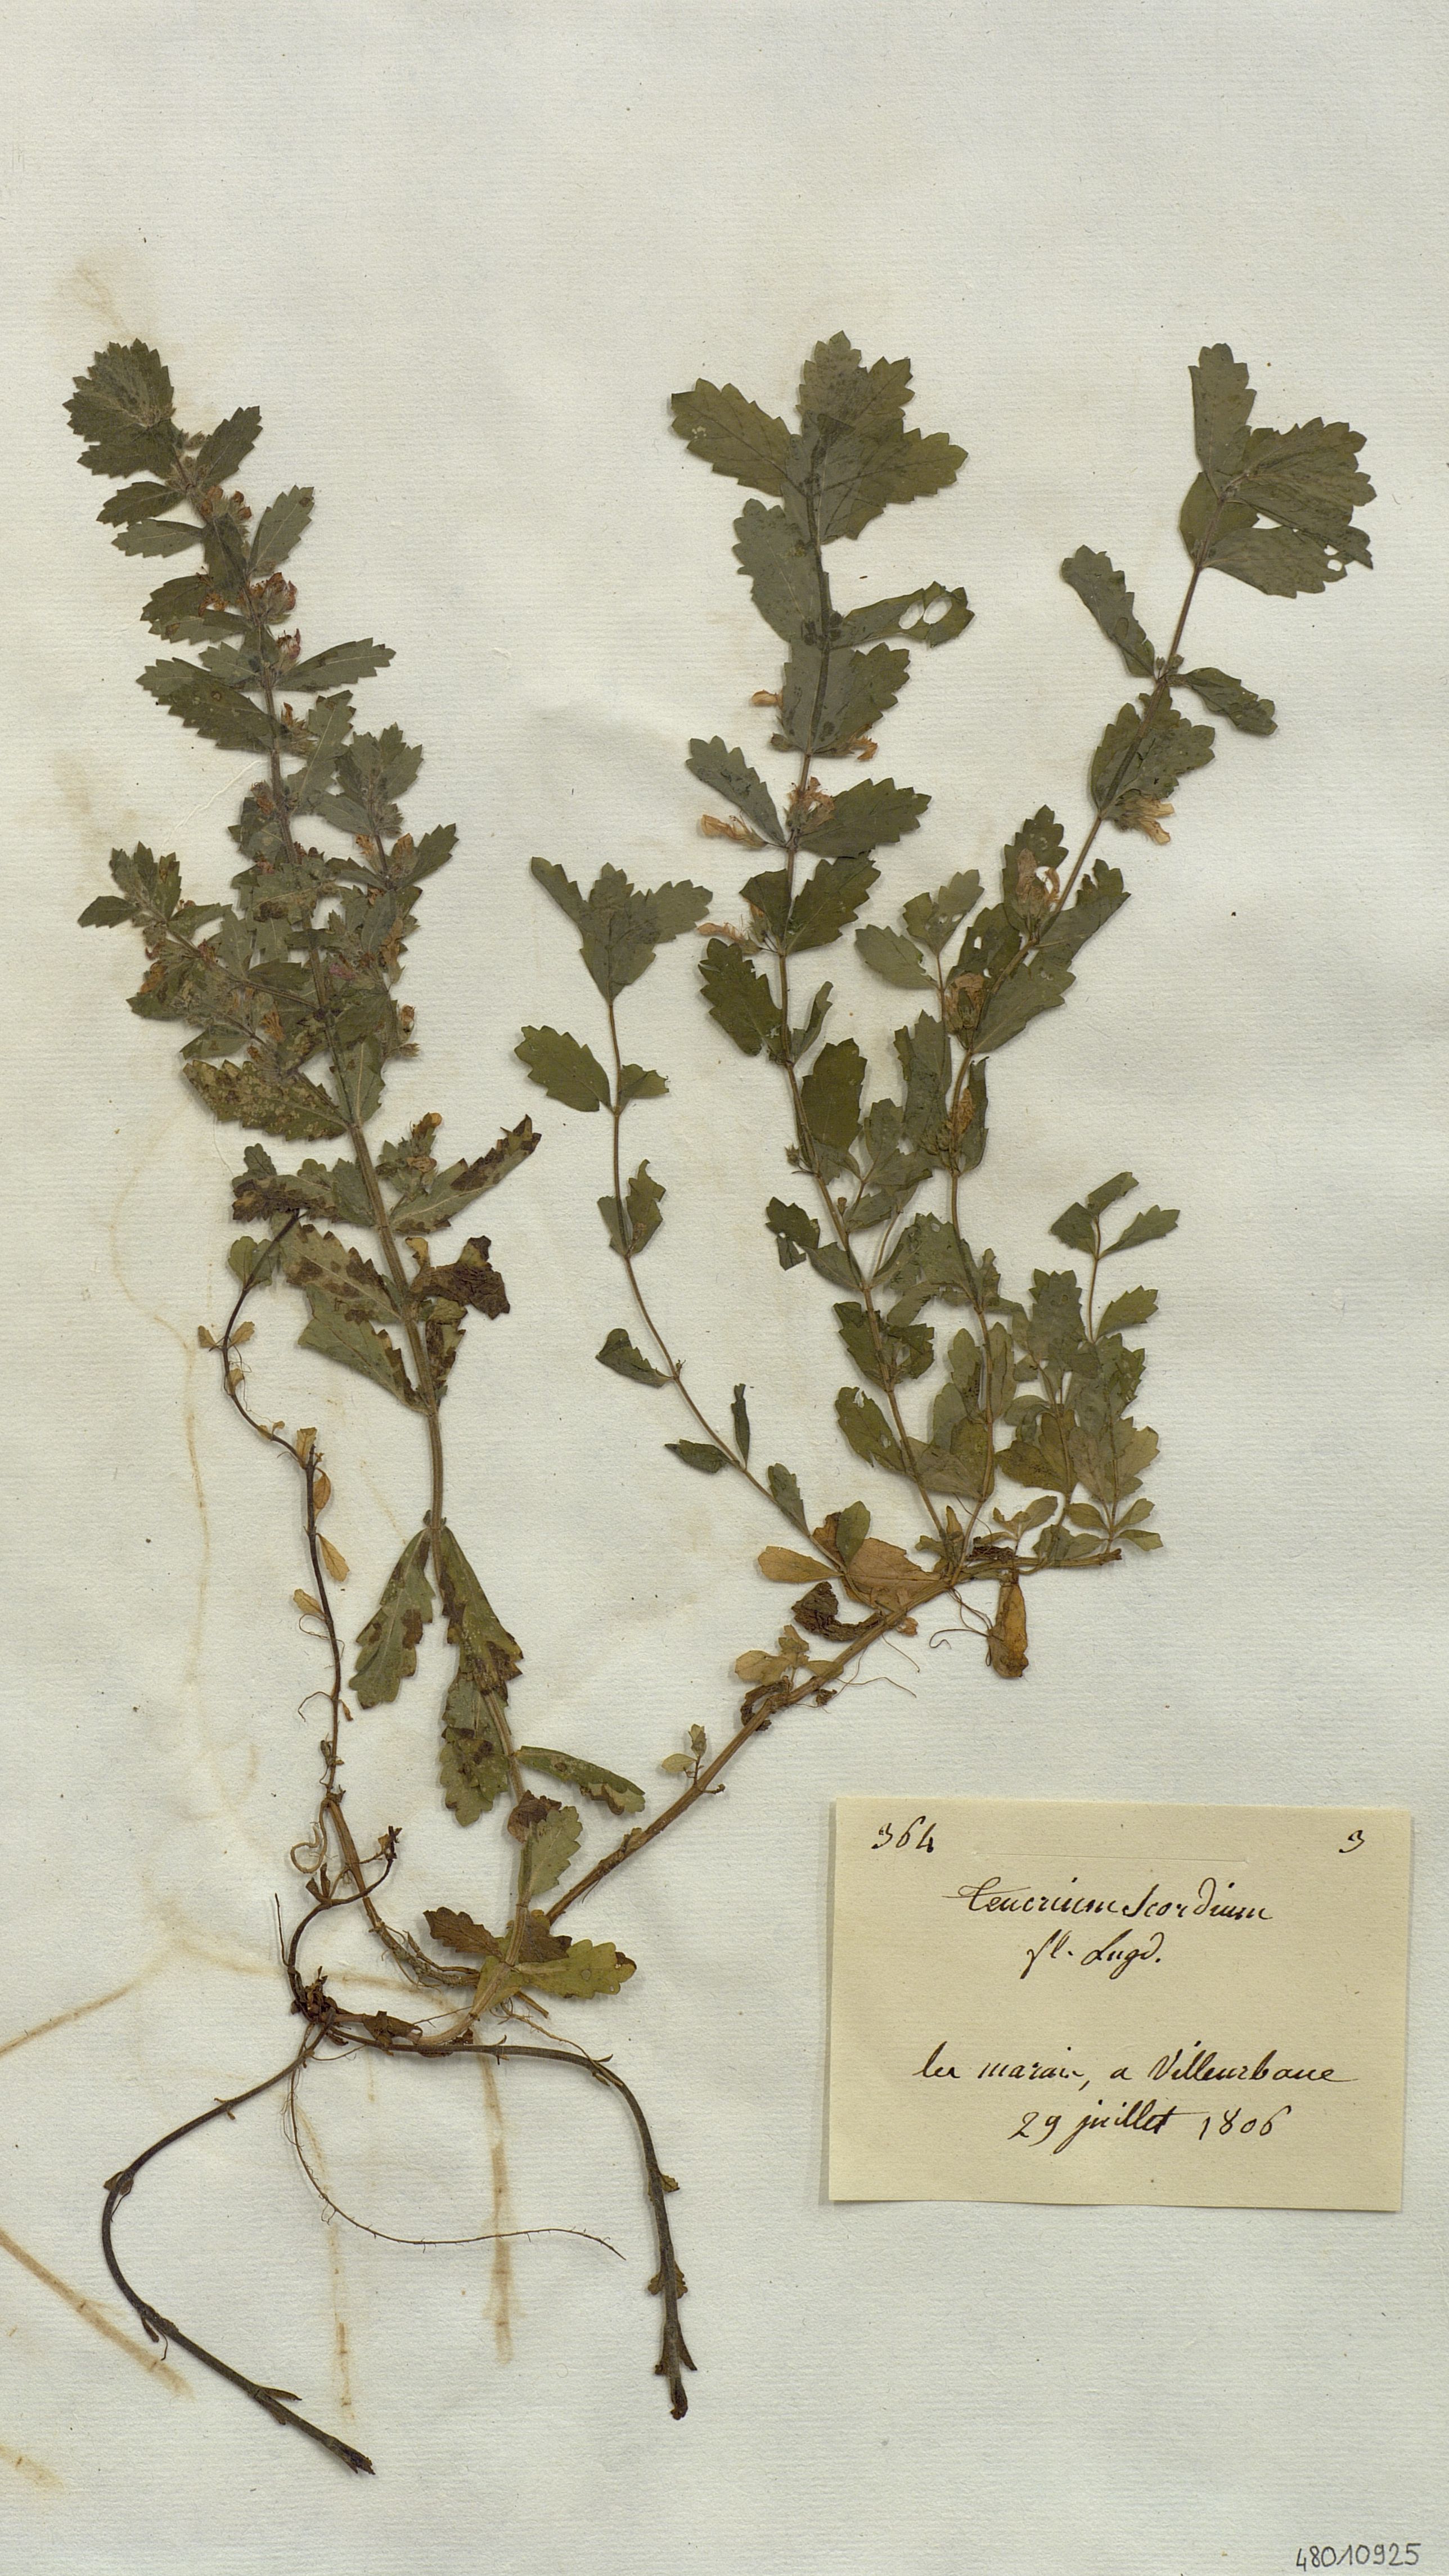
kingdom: Plantae
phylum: Tracheophyta
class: Magnoliopsida
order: Lamiales
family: Lamiaceae
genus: Teucrium
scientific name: Teucrium scordium
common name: Water germander
